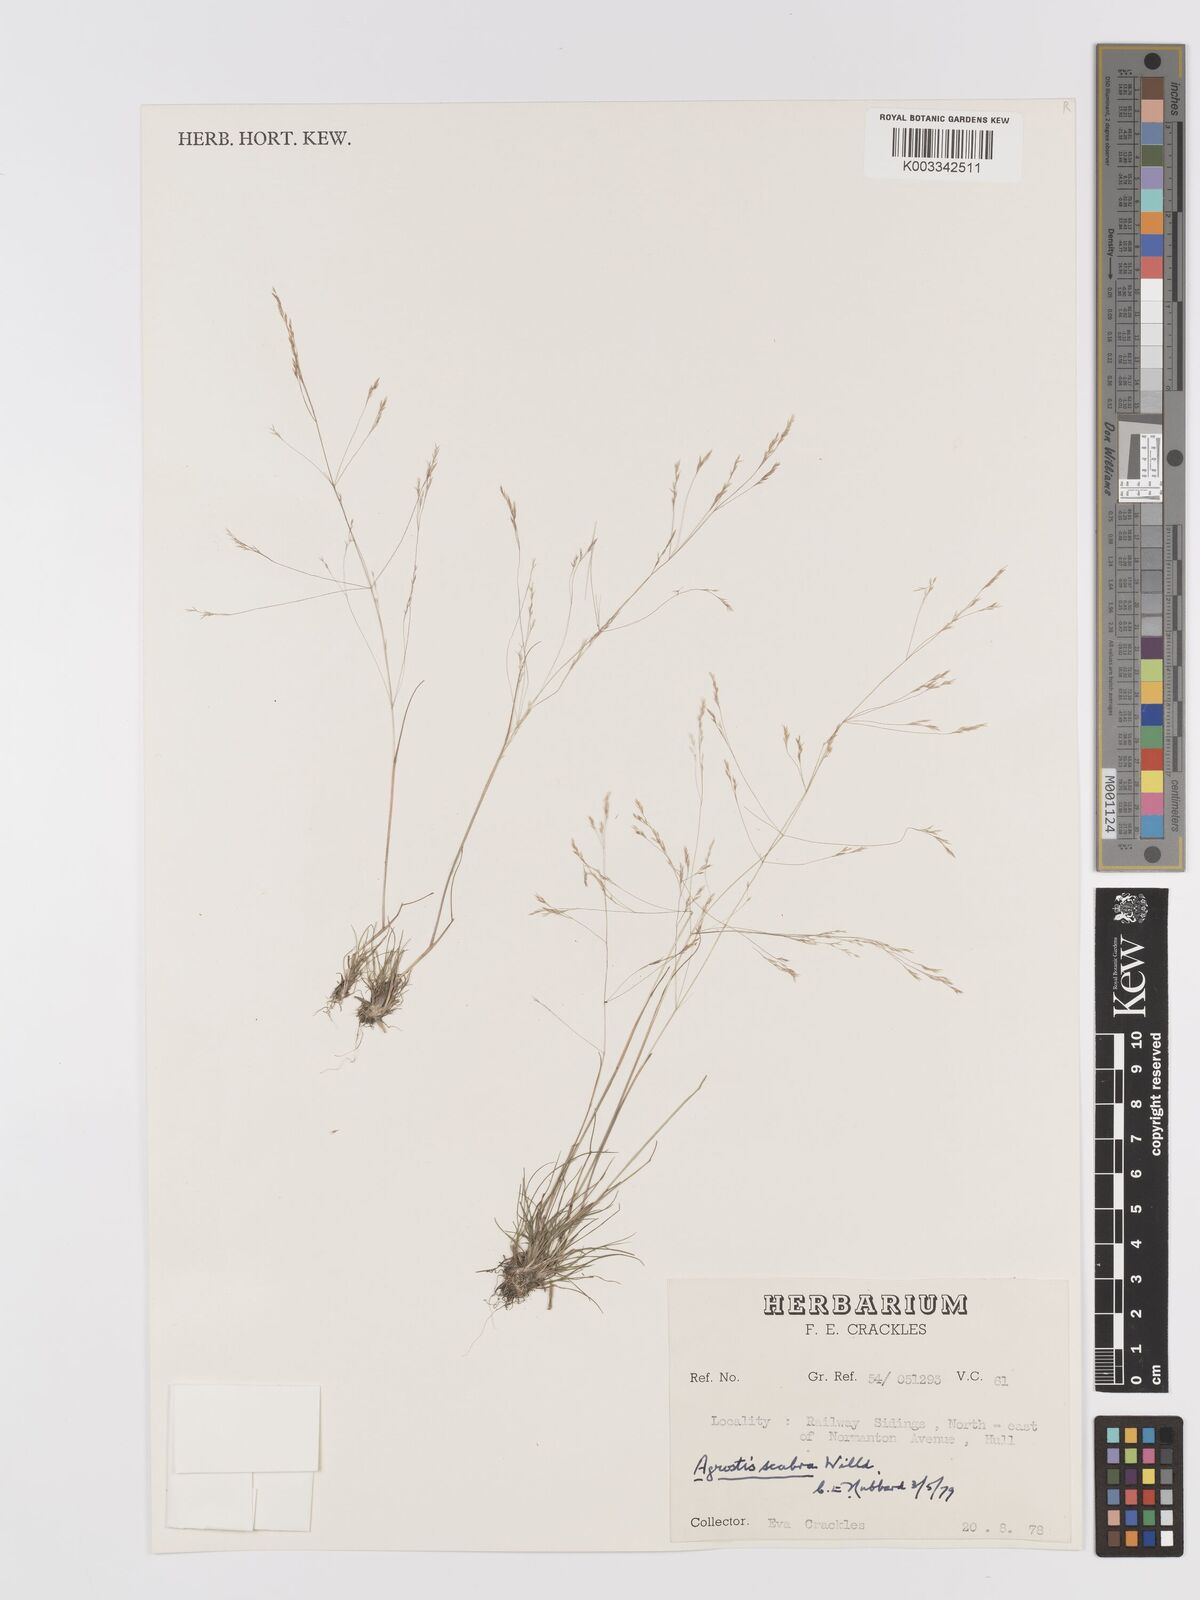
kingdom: Plantae
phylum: Tracheophyta
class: Liliopsida
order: Poales
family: Poaceae
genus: Agrostis
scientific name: Agrostis hyemalis
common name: Small bent
